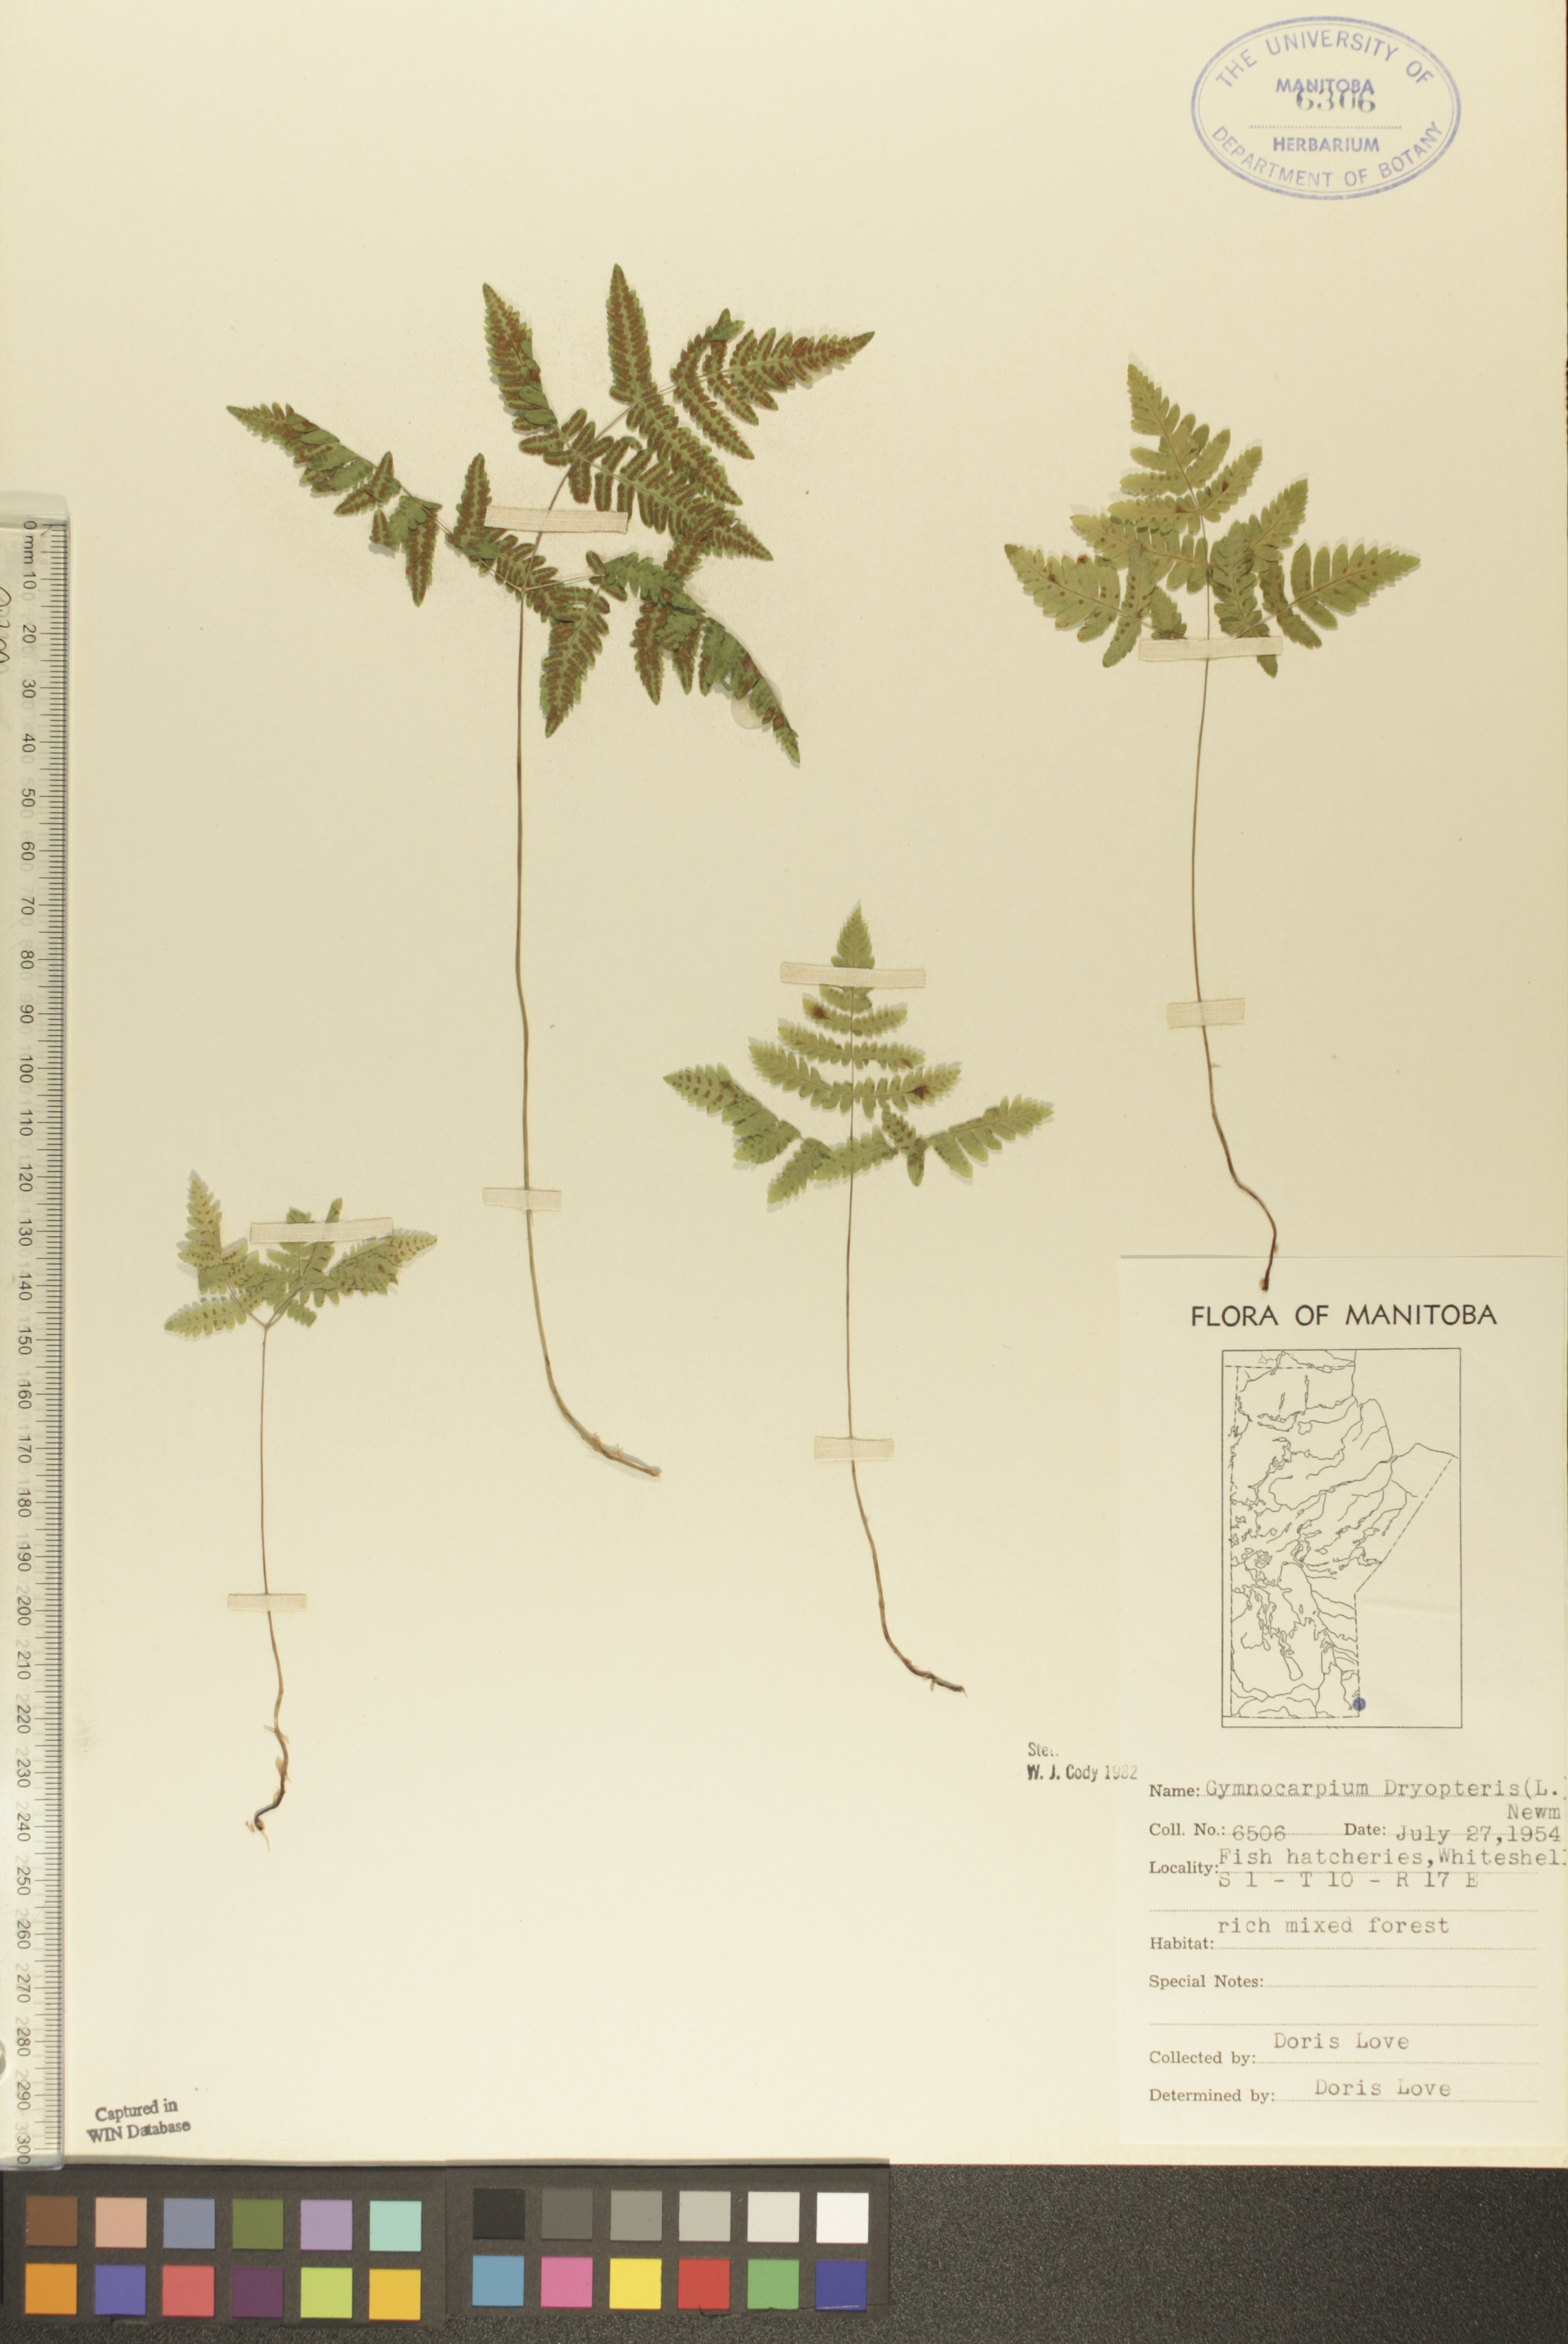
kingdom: Plantae
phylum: Tracheophyta
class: Polypodiopsida
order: Polypodiales
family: Cystopteridaceae
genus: Gymnocarpium
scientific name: Gymnocarpium dryopteris
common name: Oak fern
